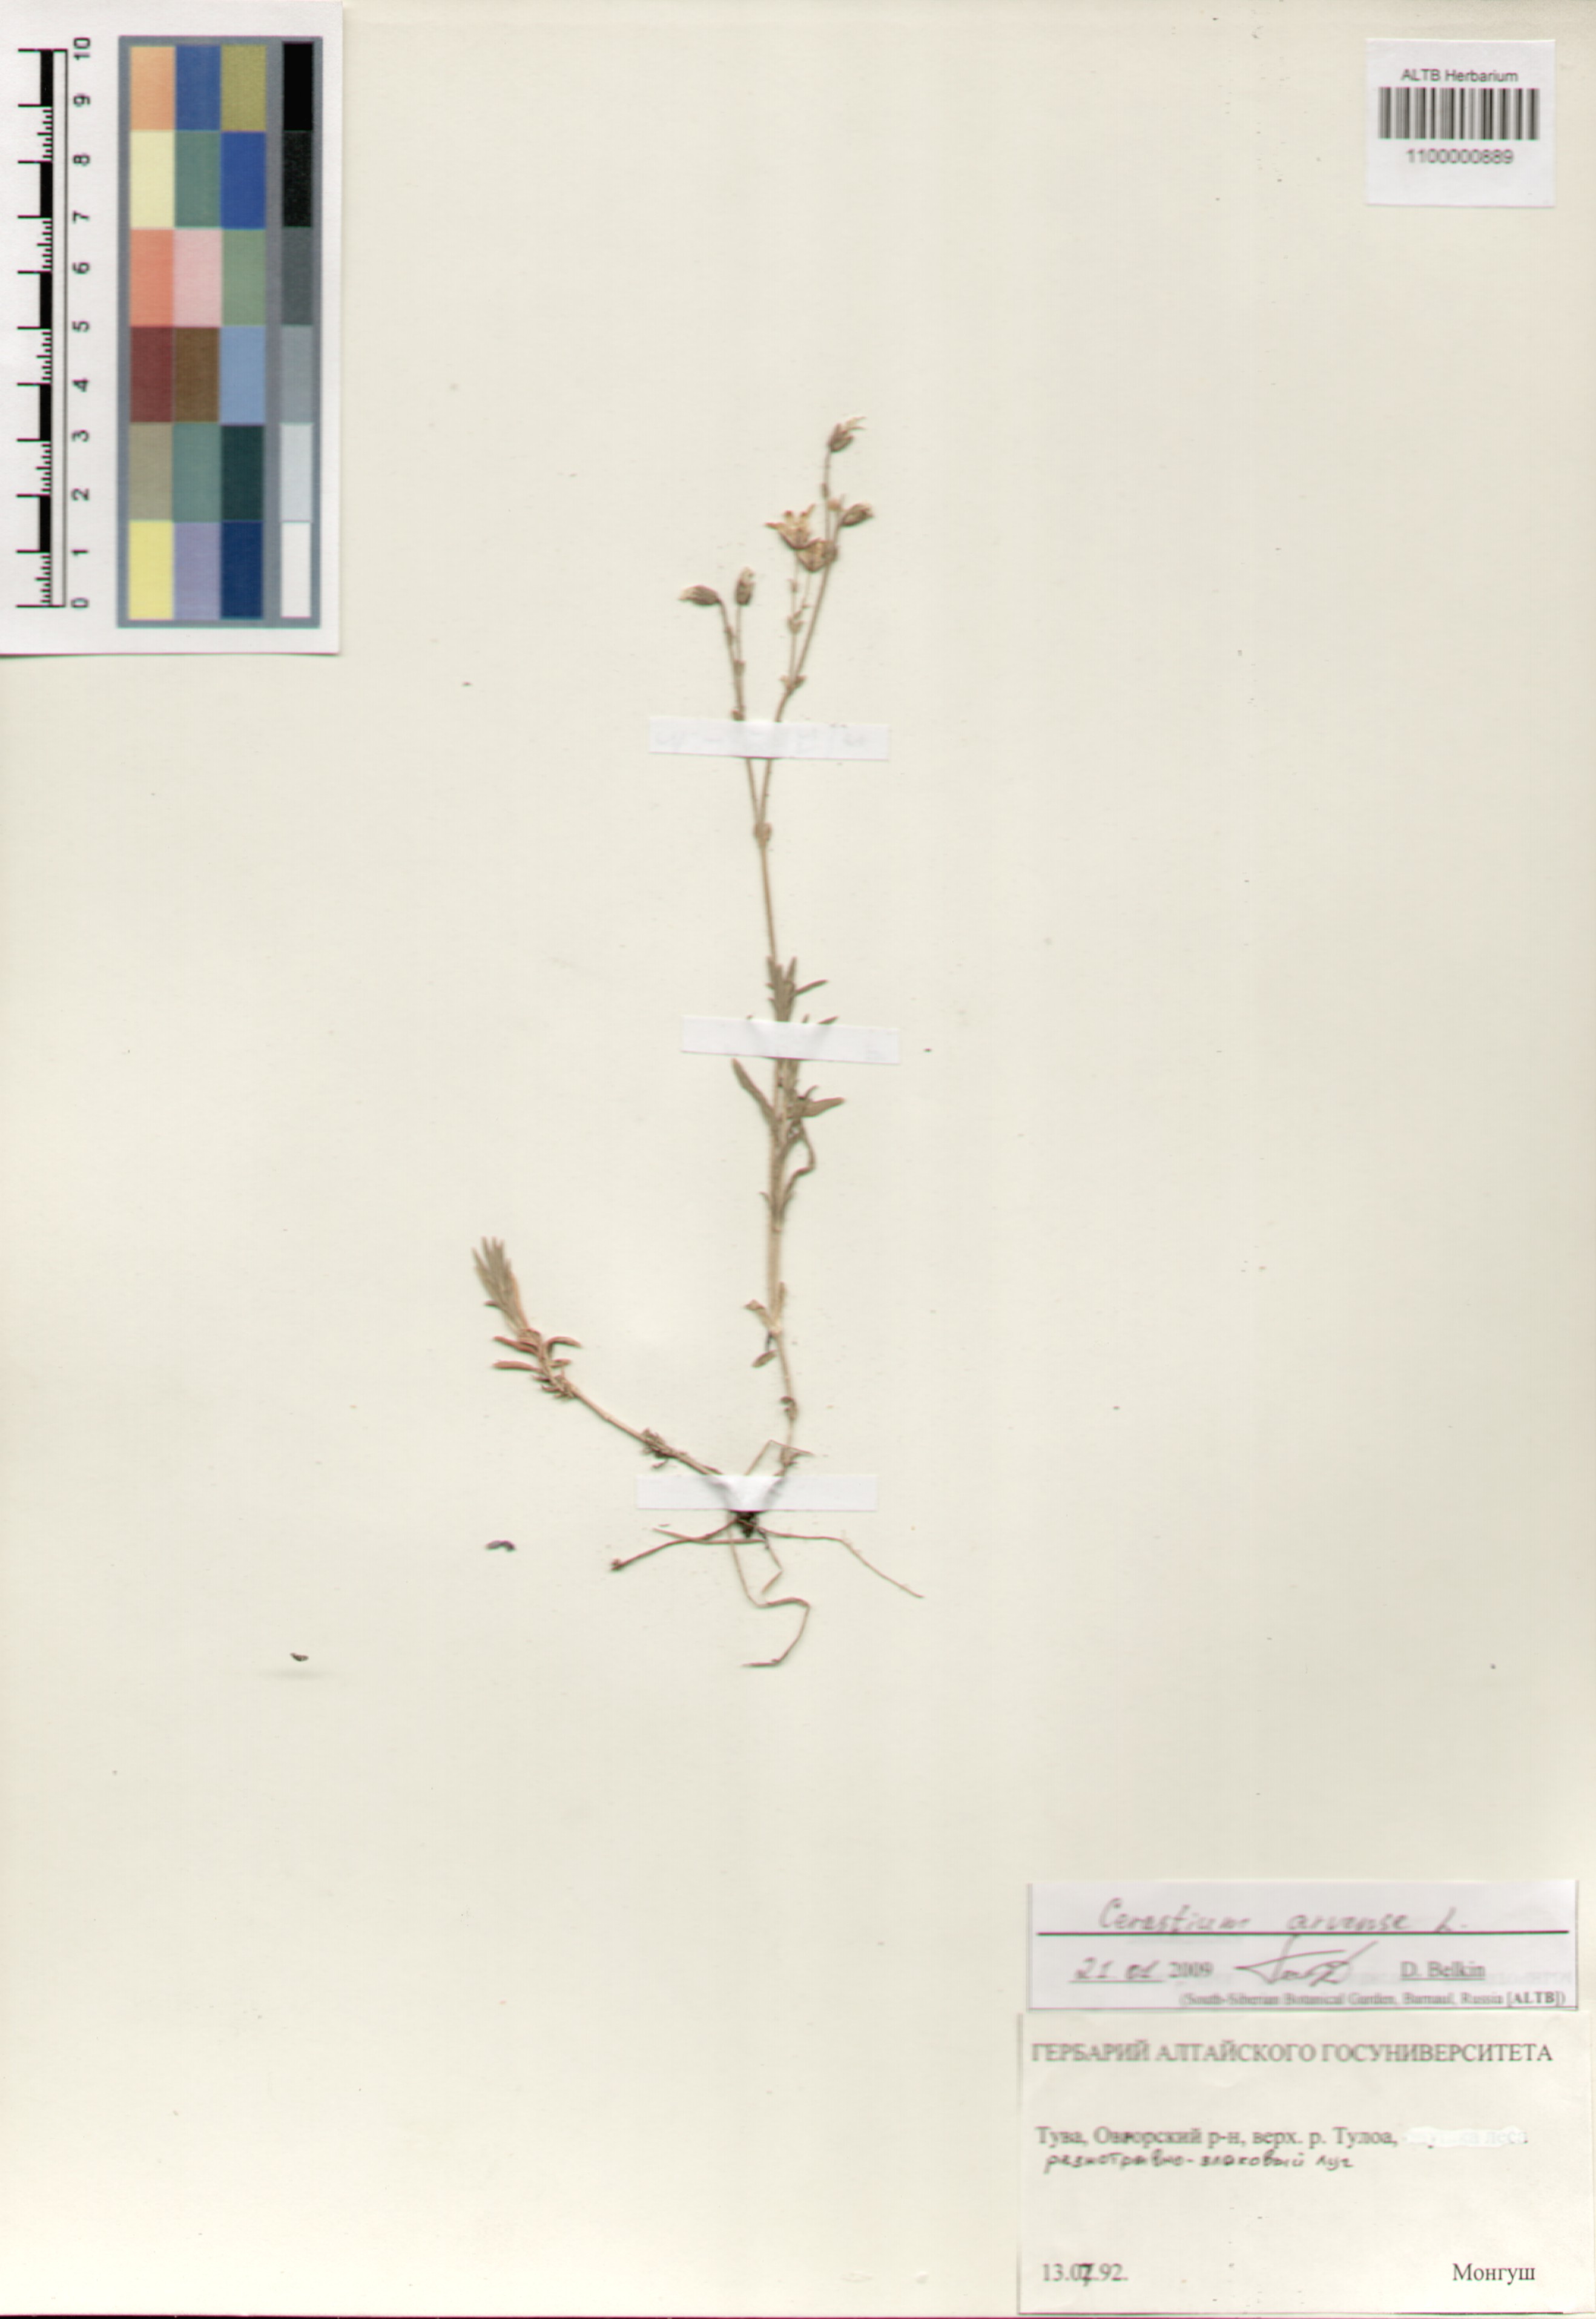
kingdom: Plantae
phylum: Tracheophyta
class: Magnoliopsida
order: Caryophyllales
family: Caryophyllaceae
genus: Cerastium
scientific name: Cerastium arvense
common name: Field mouse-ear
